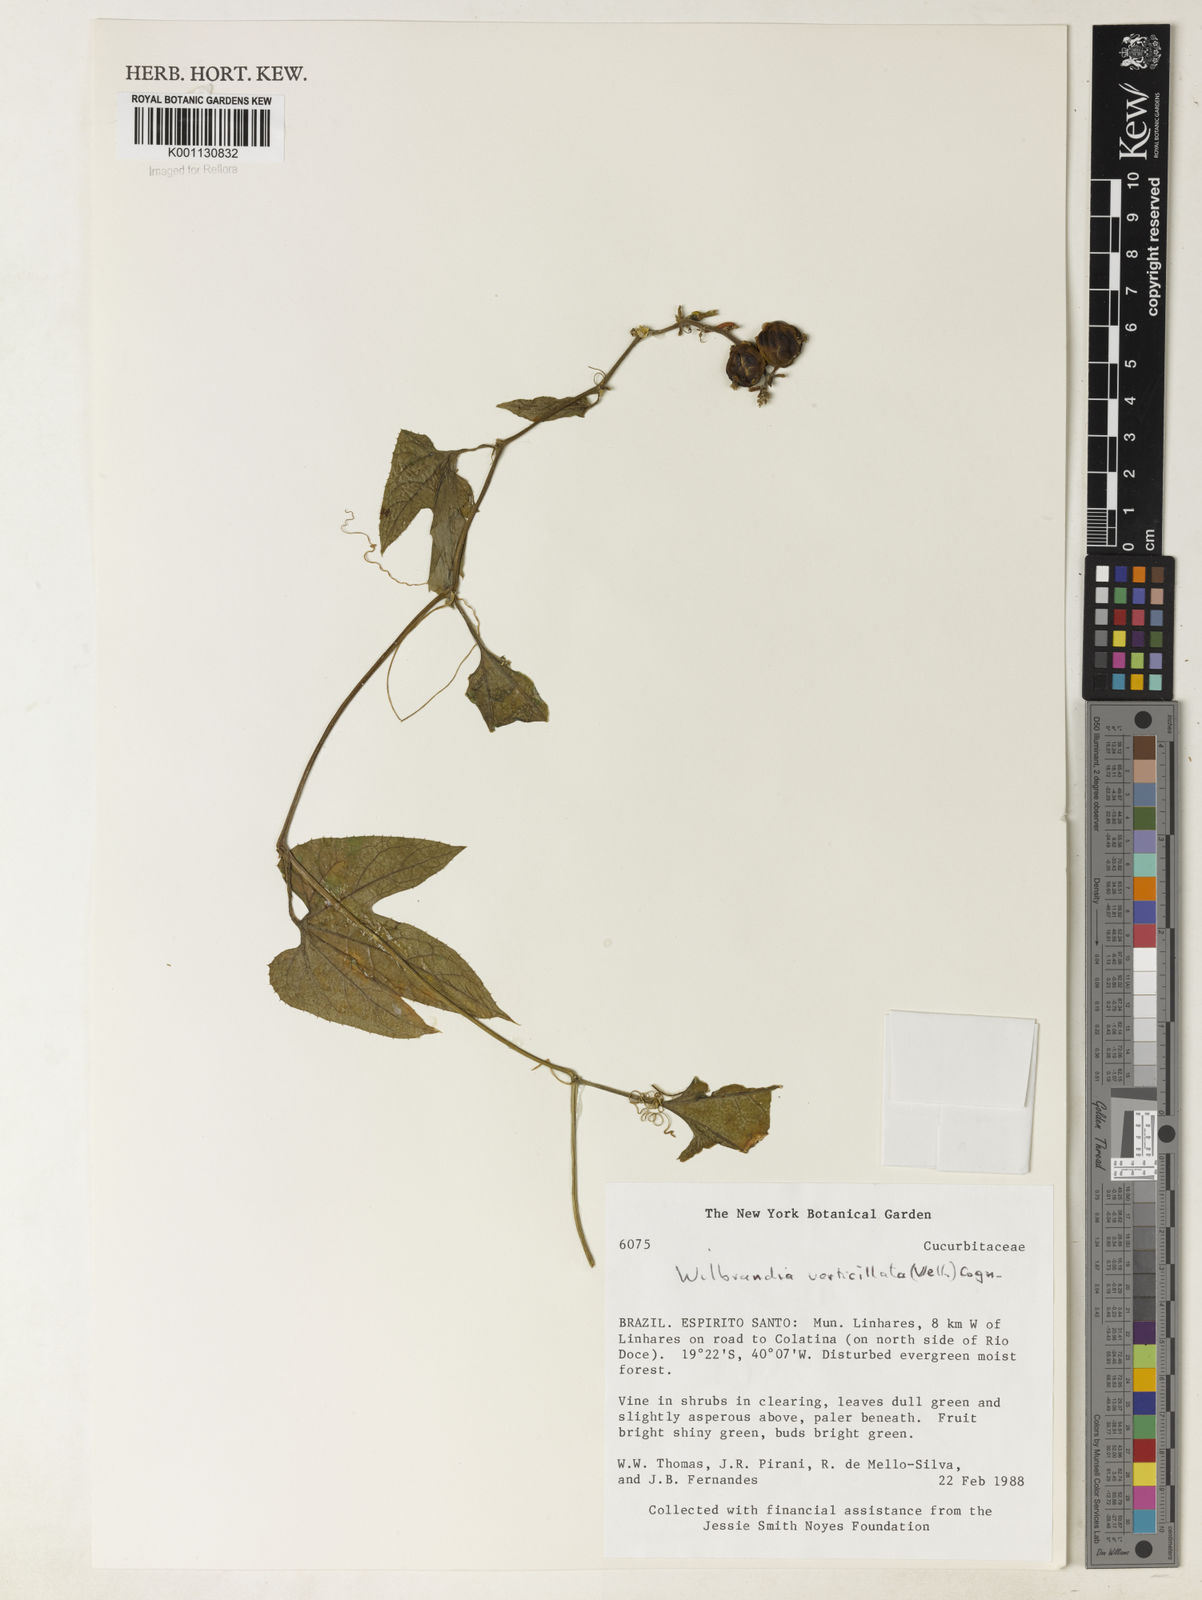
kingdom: Plantae
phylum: Tracheophyta
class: Magnoliopsida
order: Cucurbitales
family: Cucurbitaceae
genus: Wilbrandia
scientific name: Wilbrandia verticillata
